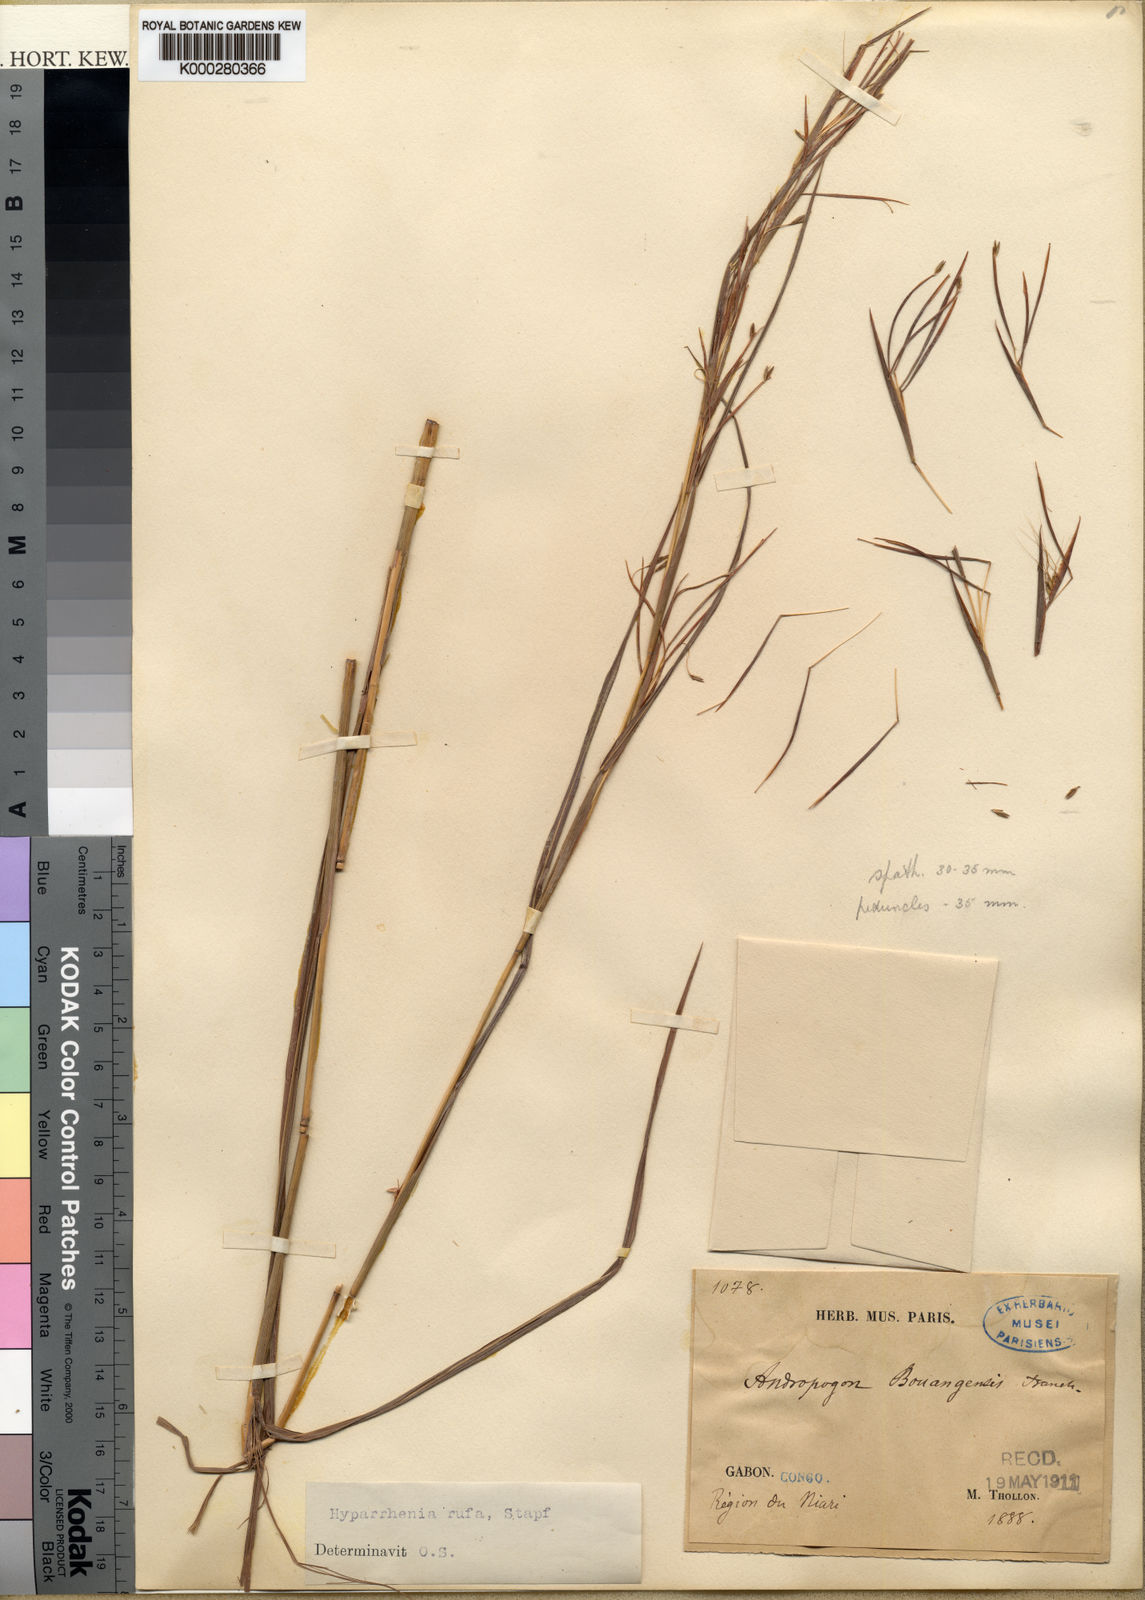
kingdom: Plantae
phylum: Tracheophyta
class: Liliopsida
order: Poales
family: Poaceae
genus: Hyparrhenia
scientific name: Hyparrhenia rufa
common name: Jaraguagrass
